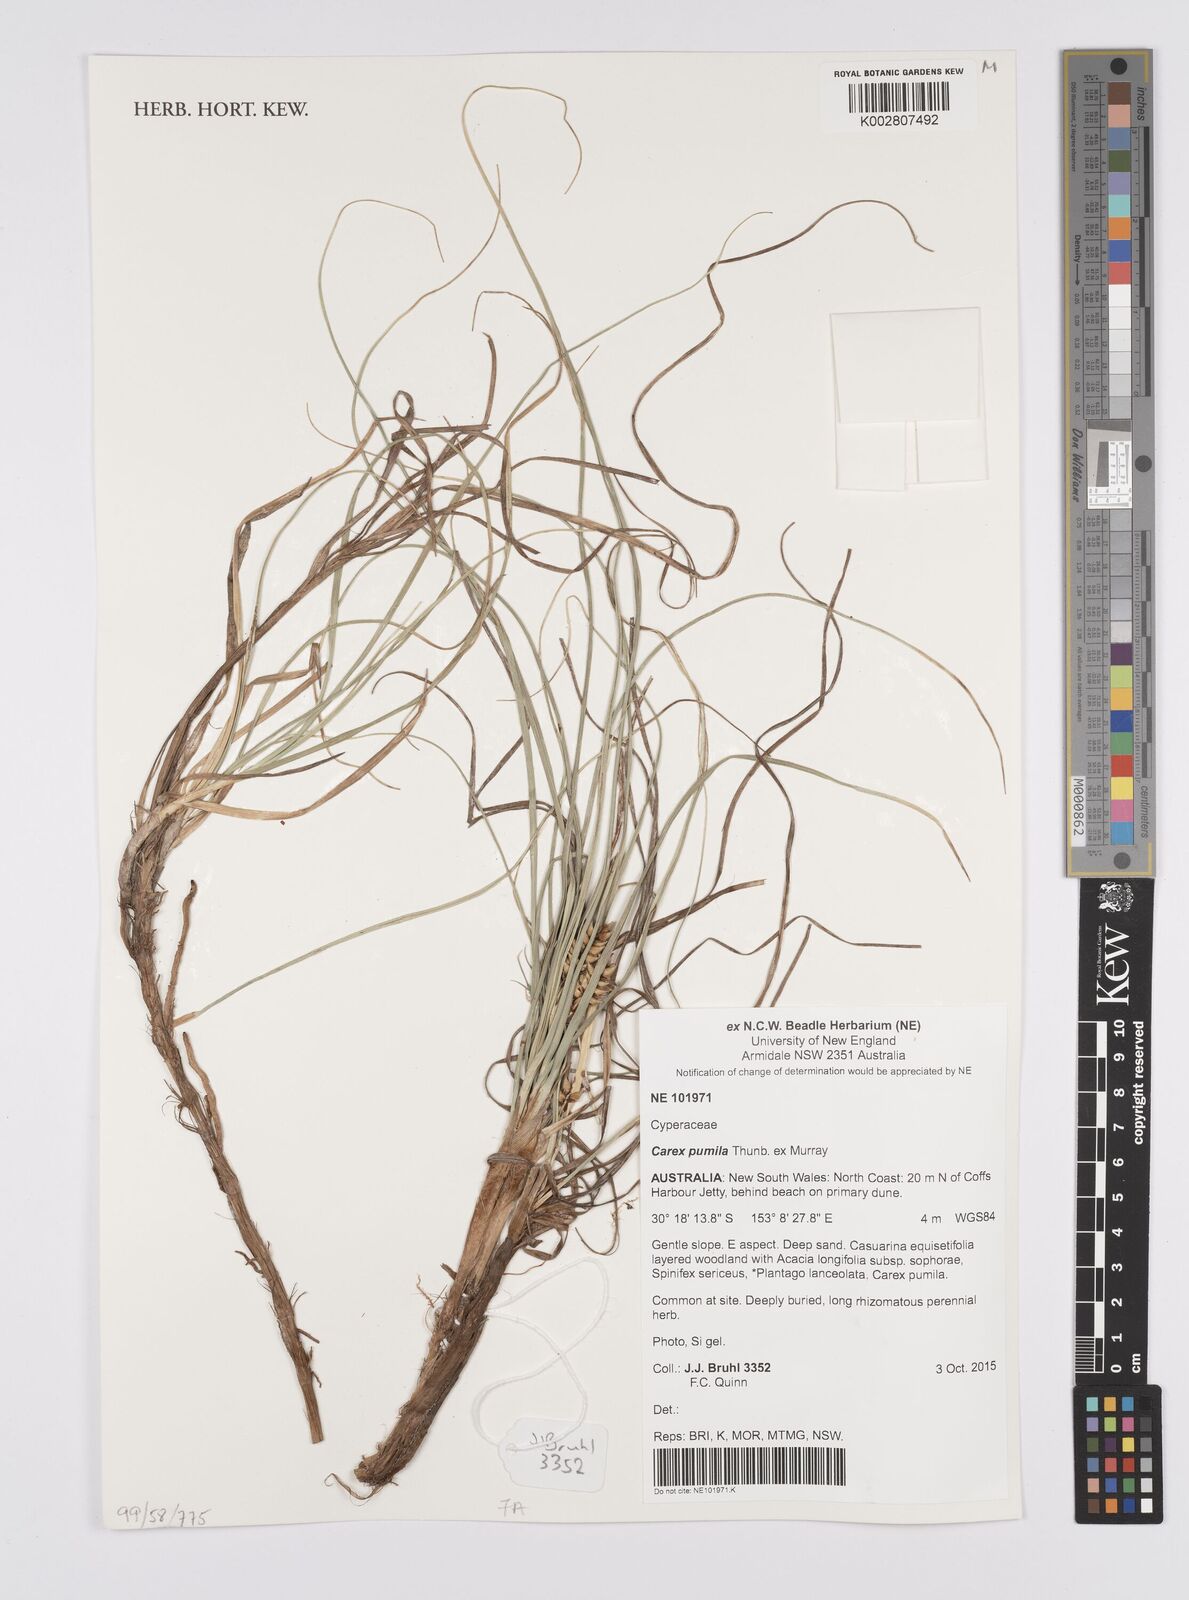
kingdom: Plantae
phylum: Tracheophyta
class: Liliopsida
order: Poales
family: Cyperaceae
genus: Carex
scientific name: Carex pumila
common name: Dwarf sedge
